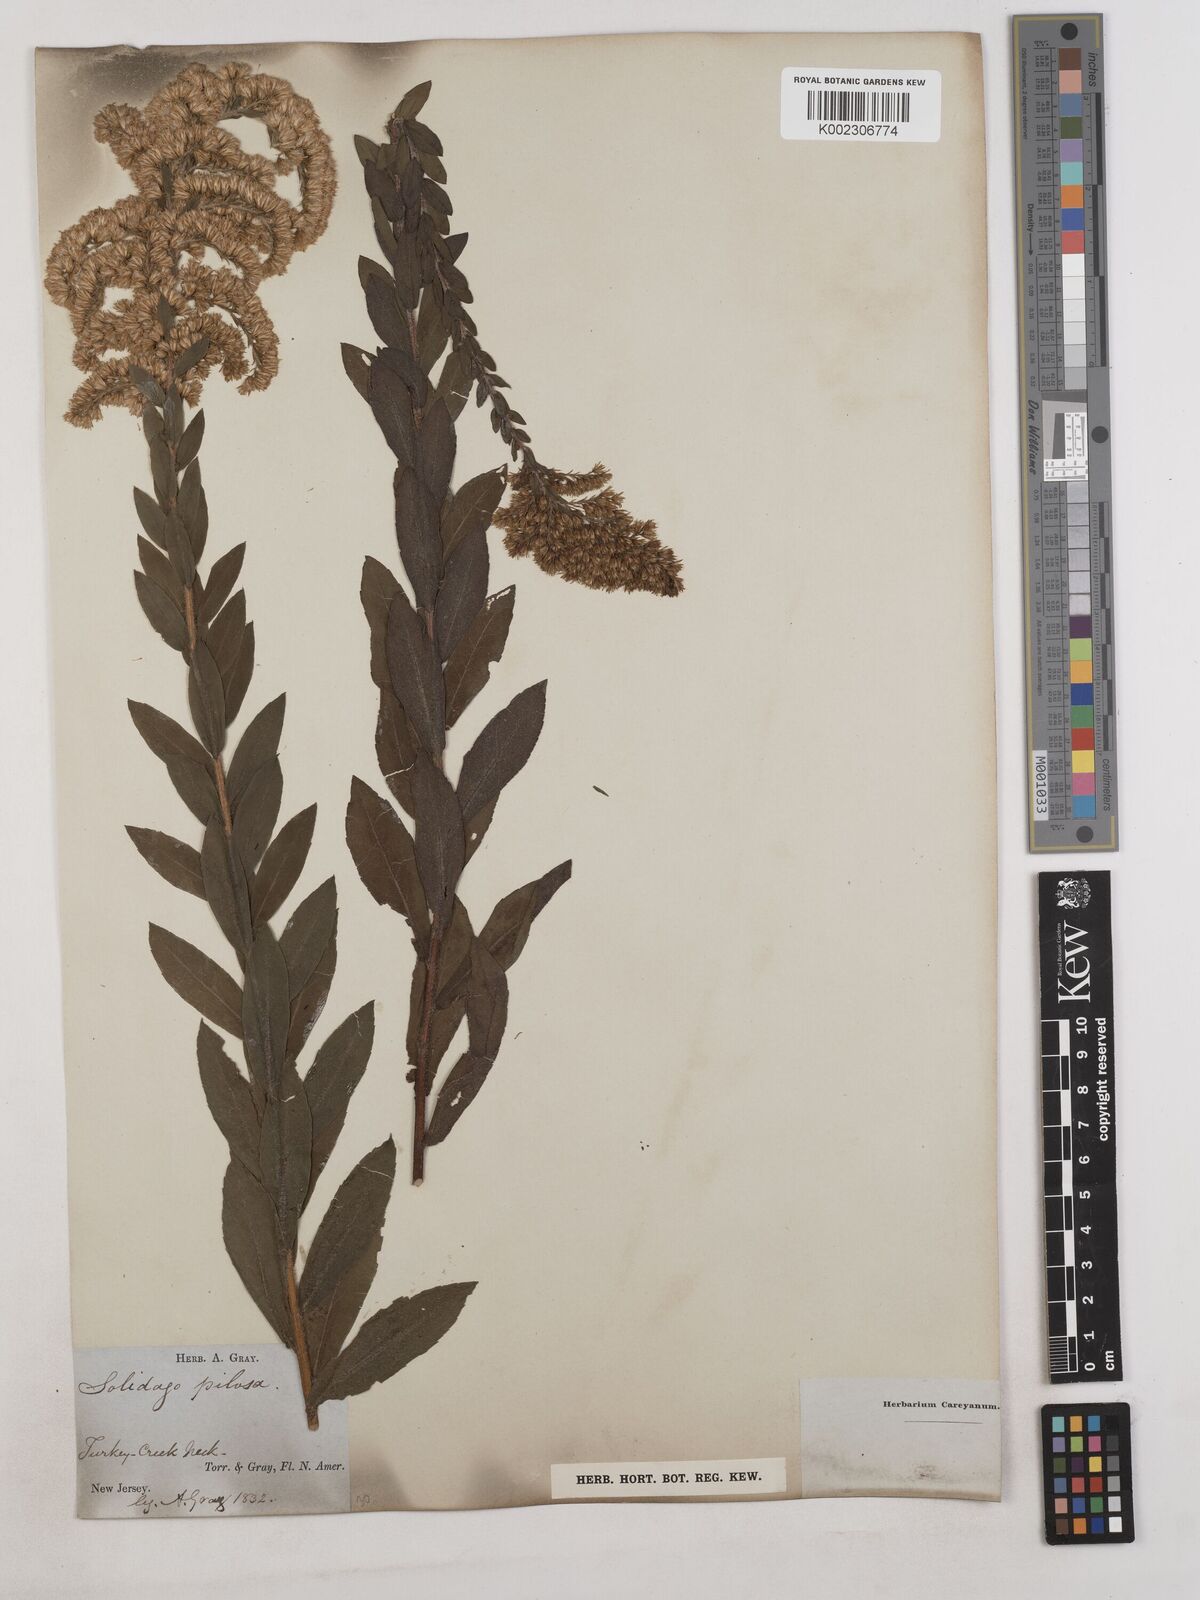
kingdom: Plantae
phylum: Tracheophyta
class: Magnoliopsida
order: Asterales
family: Asteraceae
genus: Solidago
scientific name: Solidago fistulosa
